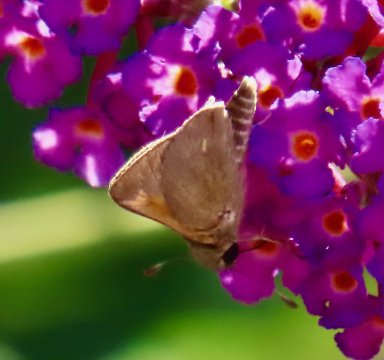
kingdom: Animalia
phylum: Arthropoda
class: Insecta
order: Lepidoptera
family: Hesperiidae
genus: Polites
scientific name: Polites themistocles
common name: Tawny-edged Skipper
